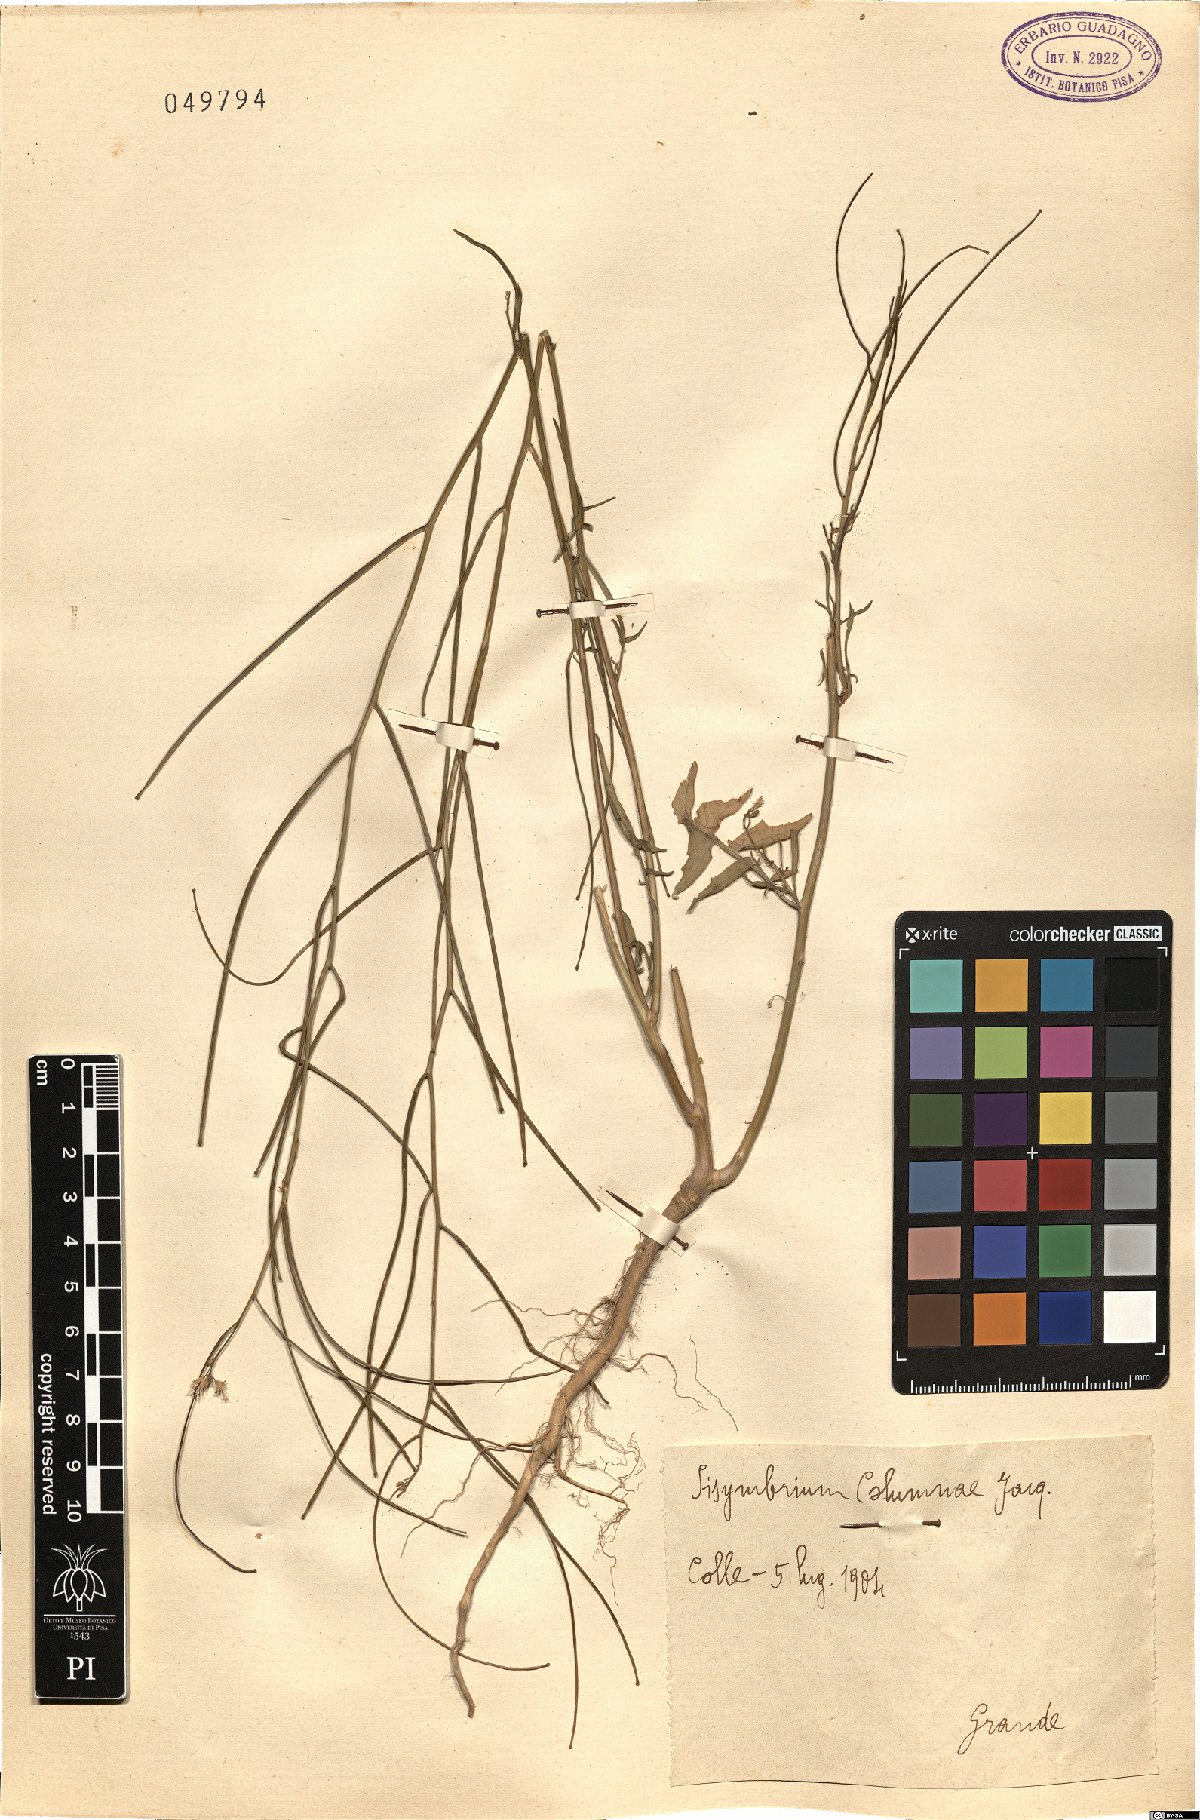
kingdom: Plantae
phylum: Tracheophyta
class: Magnoliopsida
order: Brassicales
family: Brassicaceae
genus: Sisymbrium
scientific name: Sisymbrium orientale
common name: Eastern rocket
